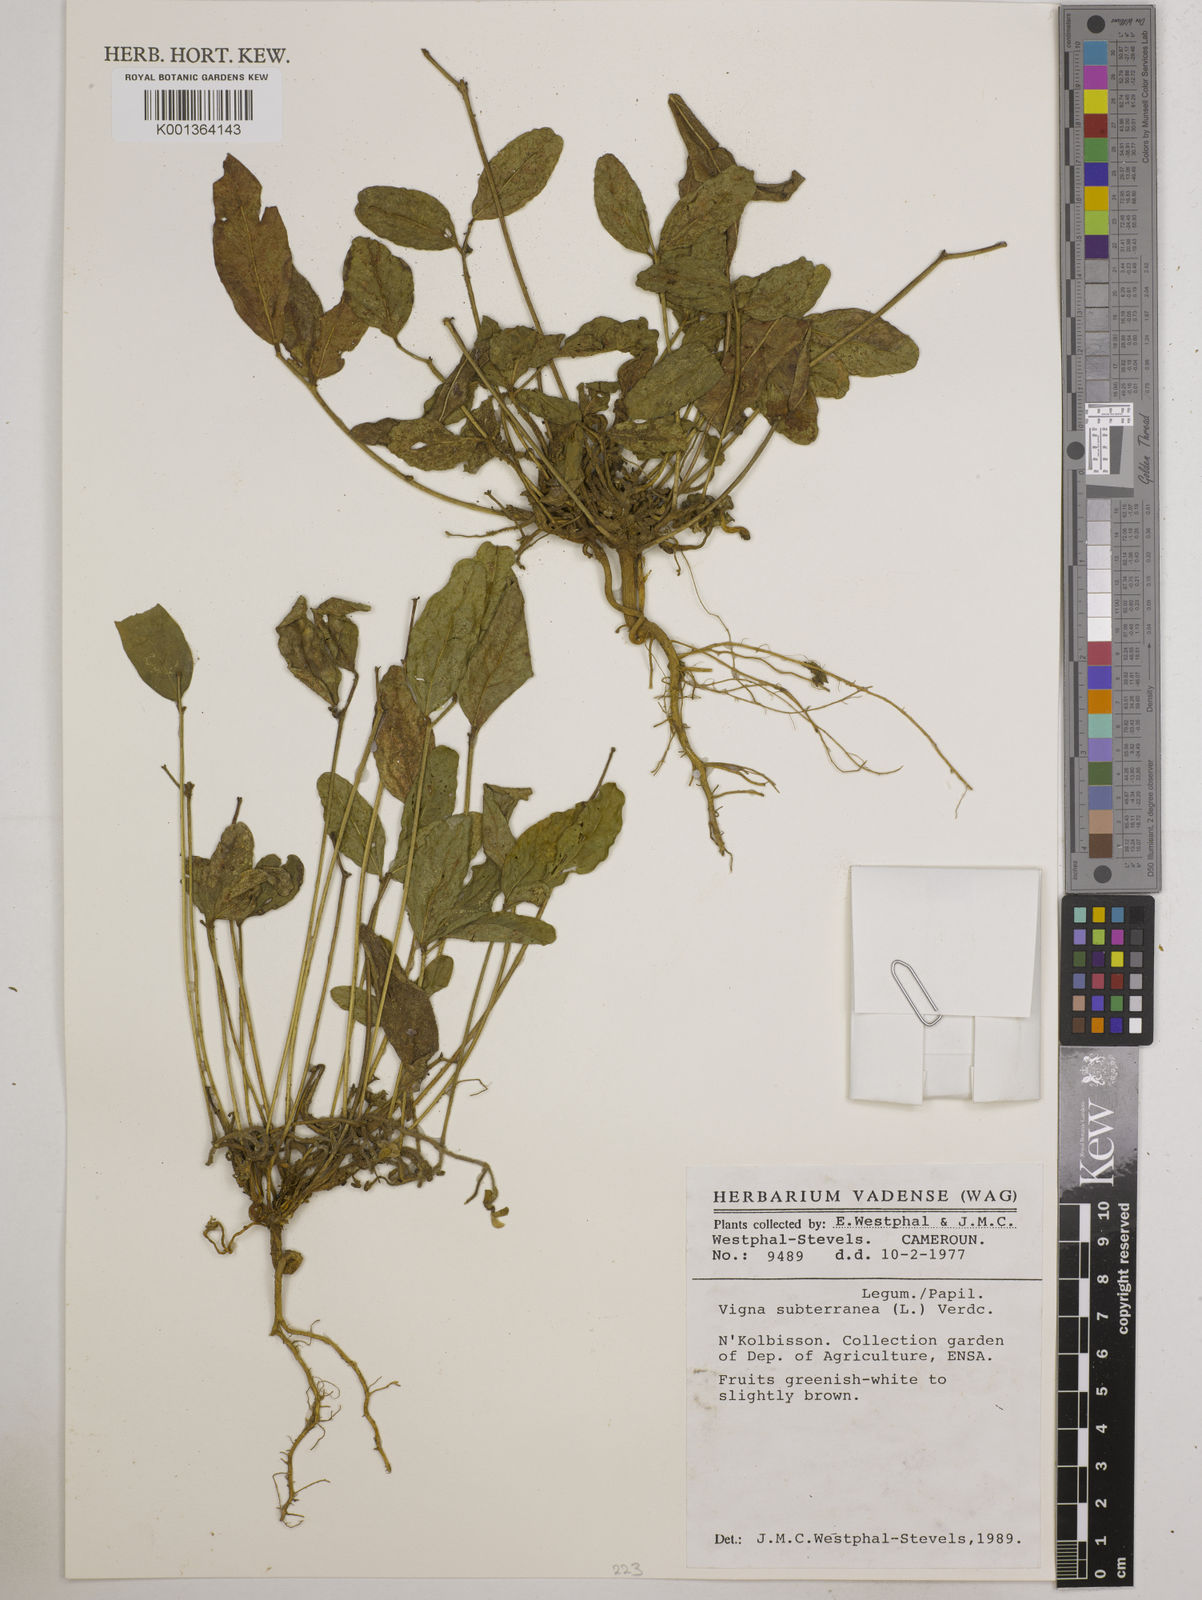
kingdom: Plantae
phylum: Tracheophyta
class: Magnoliopsida
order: Fabales
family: Fabaceae
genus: Vigna
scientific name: Vigna subterranea
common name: Bambara groundnut
